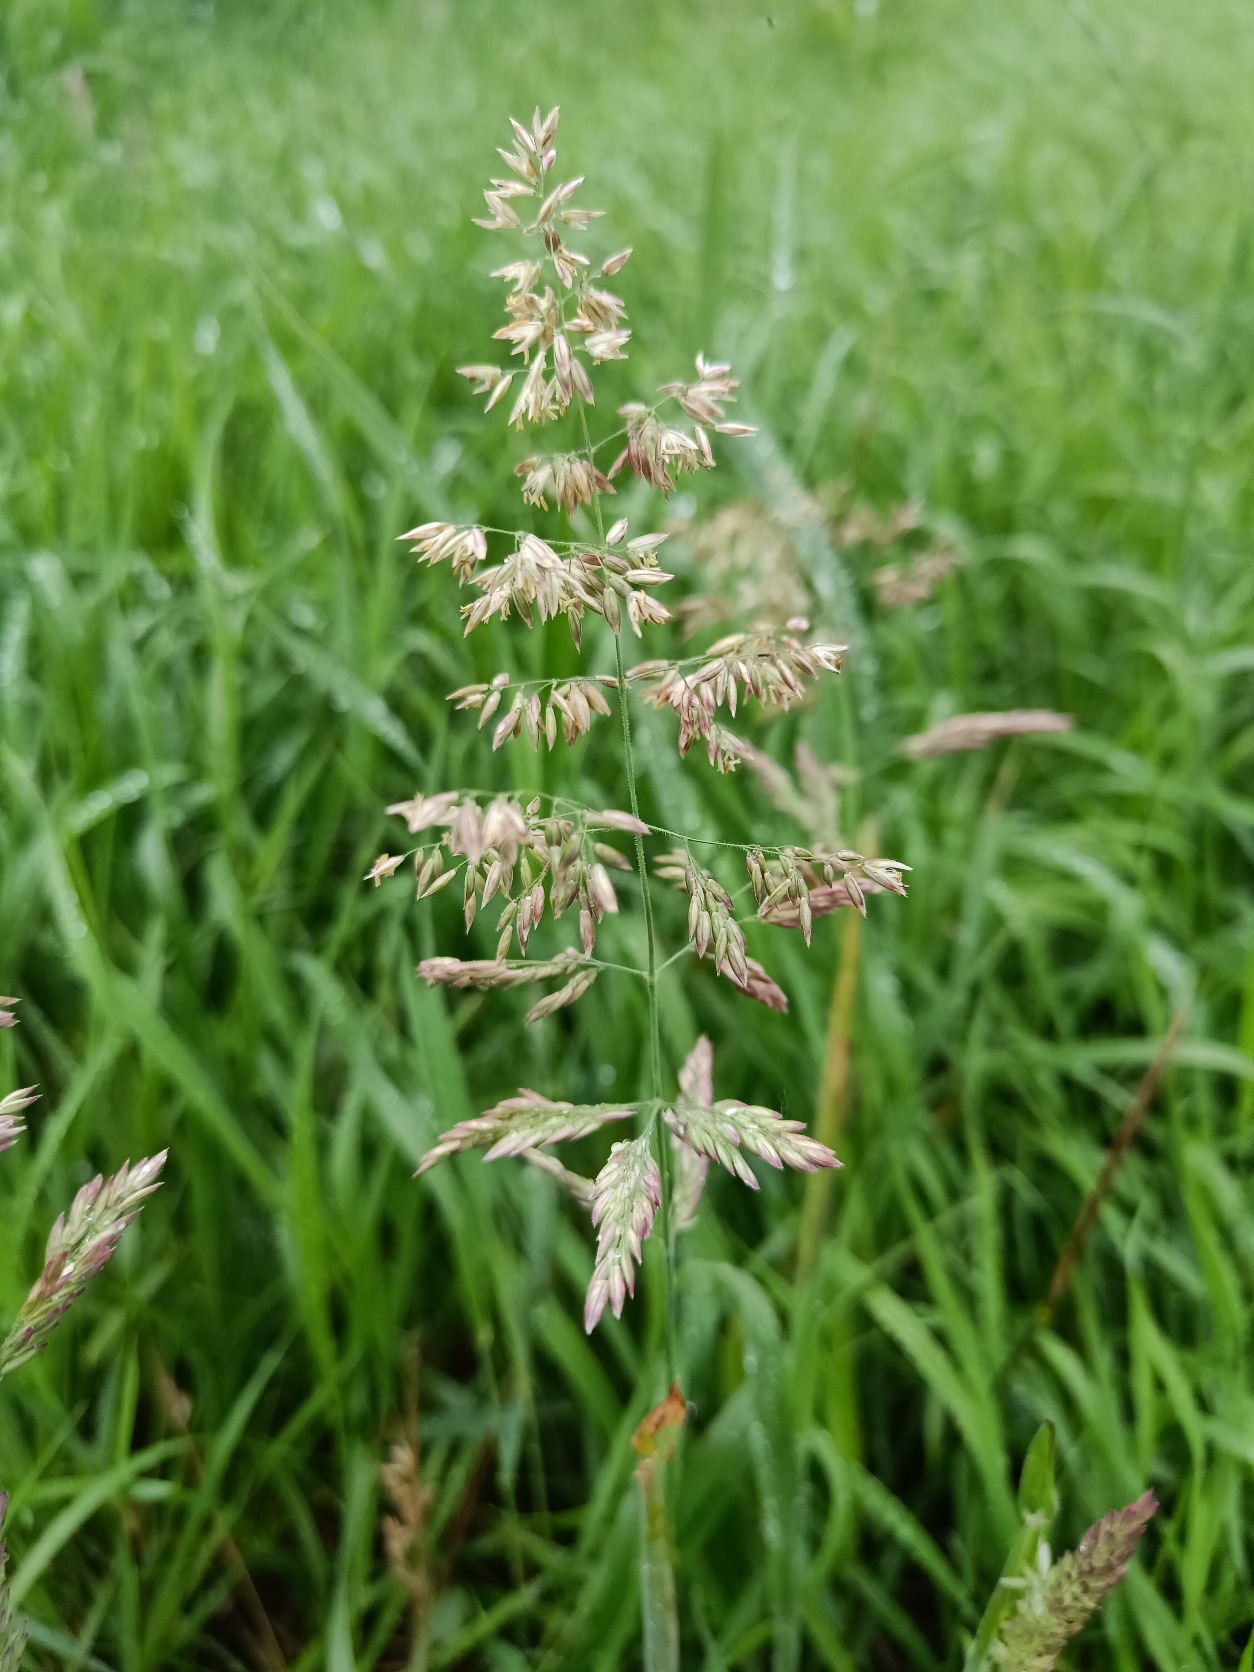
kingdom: Plantae
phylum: Tracheophyta
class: Liliopsida
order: Poales
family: Poaceae
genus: Holcus
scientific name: Holcus lanatus
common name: Fløjlsgræs
